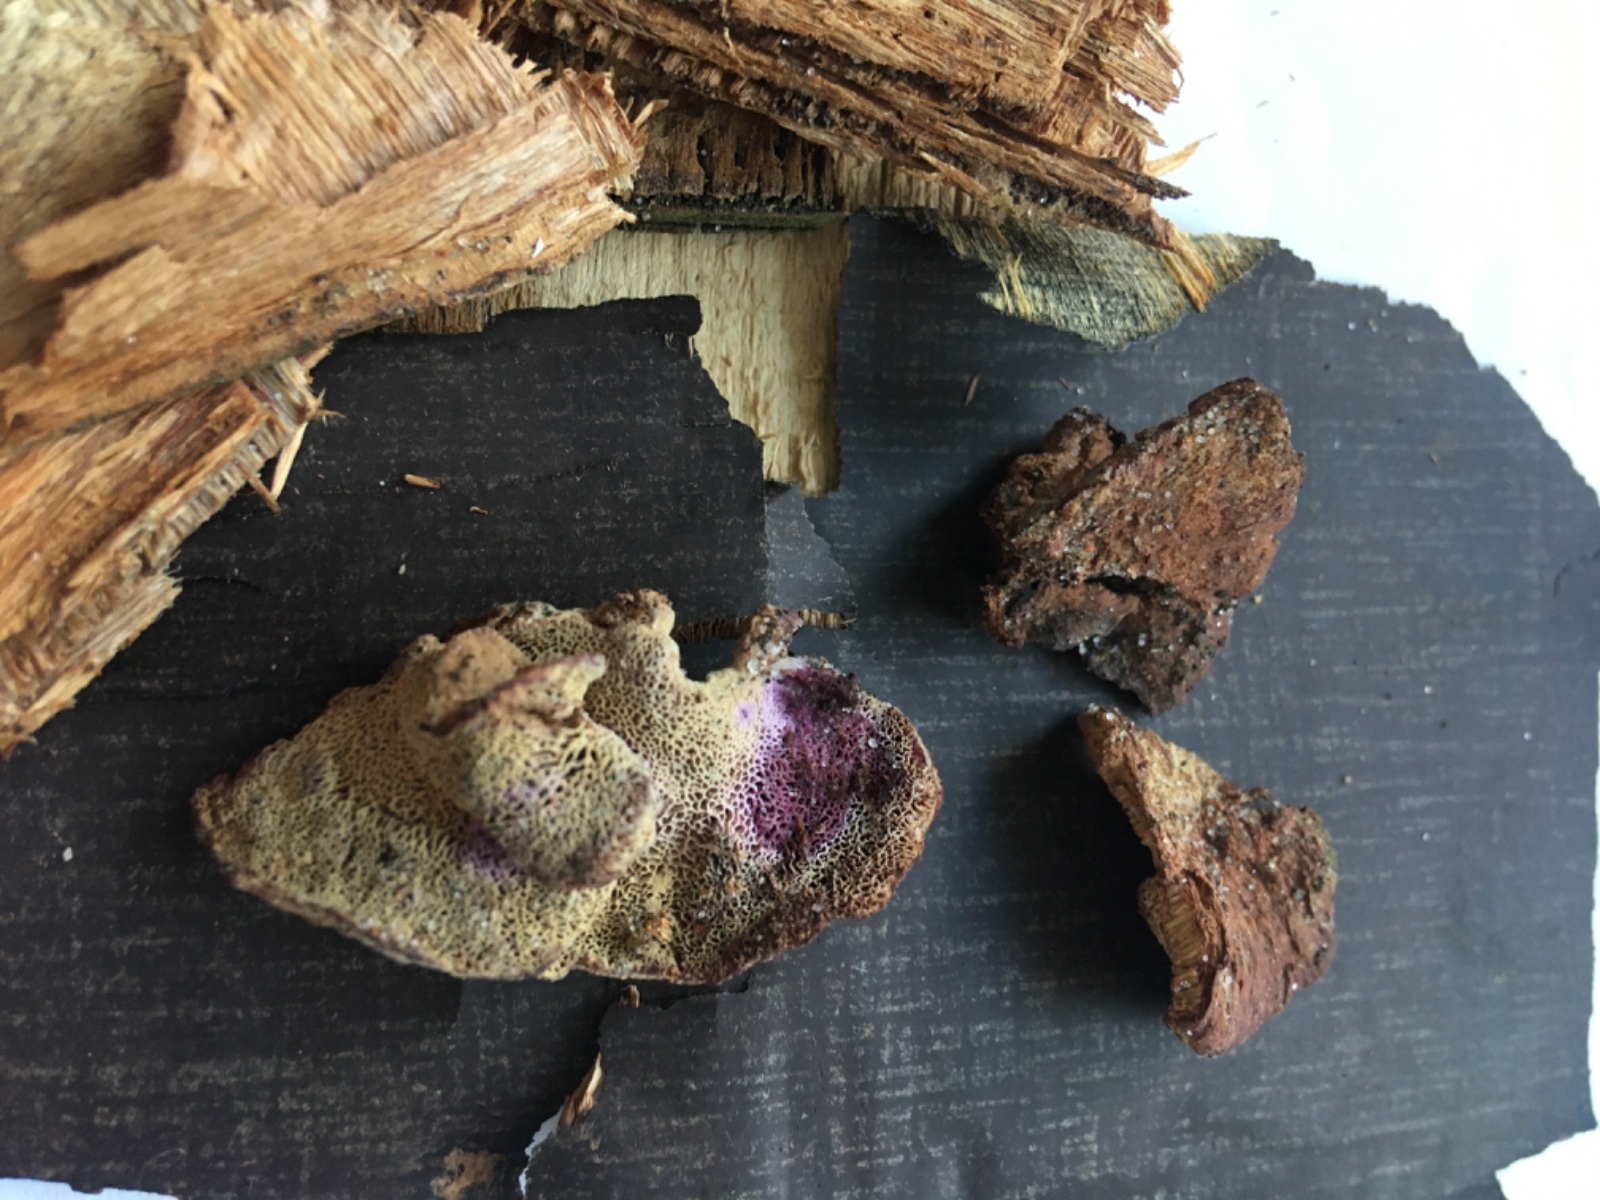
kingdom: Fungi
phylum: Basidiomycota
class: Agaricomycetes
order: Polyporales
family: Phanerochaetaceae
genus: Hapalopilus
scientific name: Hapalopilus rutilans
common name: rødlig okkerporesvamp
